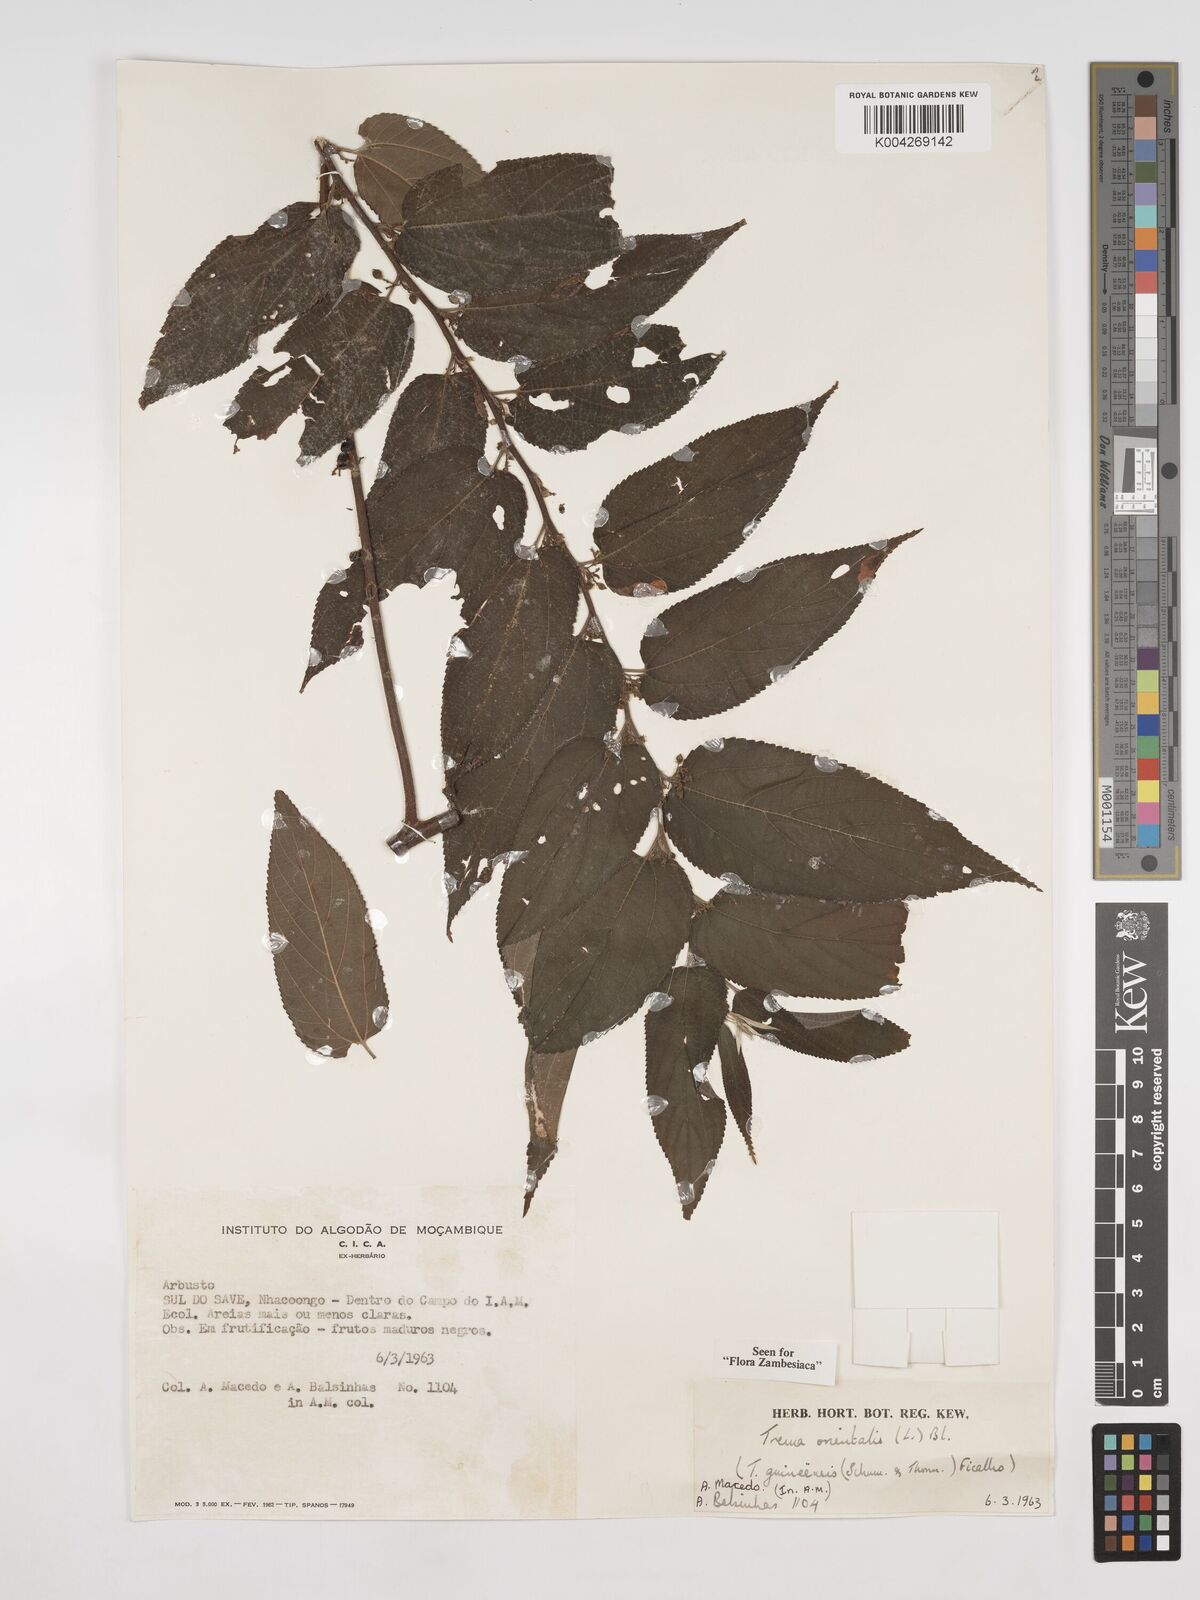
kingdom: Plantae
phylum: Tracheophyta
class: Magnoliopsida
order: Rosales
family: Cannabaceae
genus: Trema
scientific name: Trema orientale
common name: Indian charcoal tree
